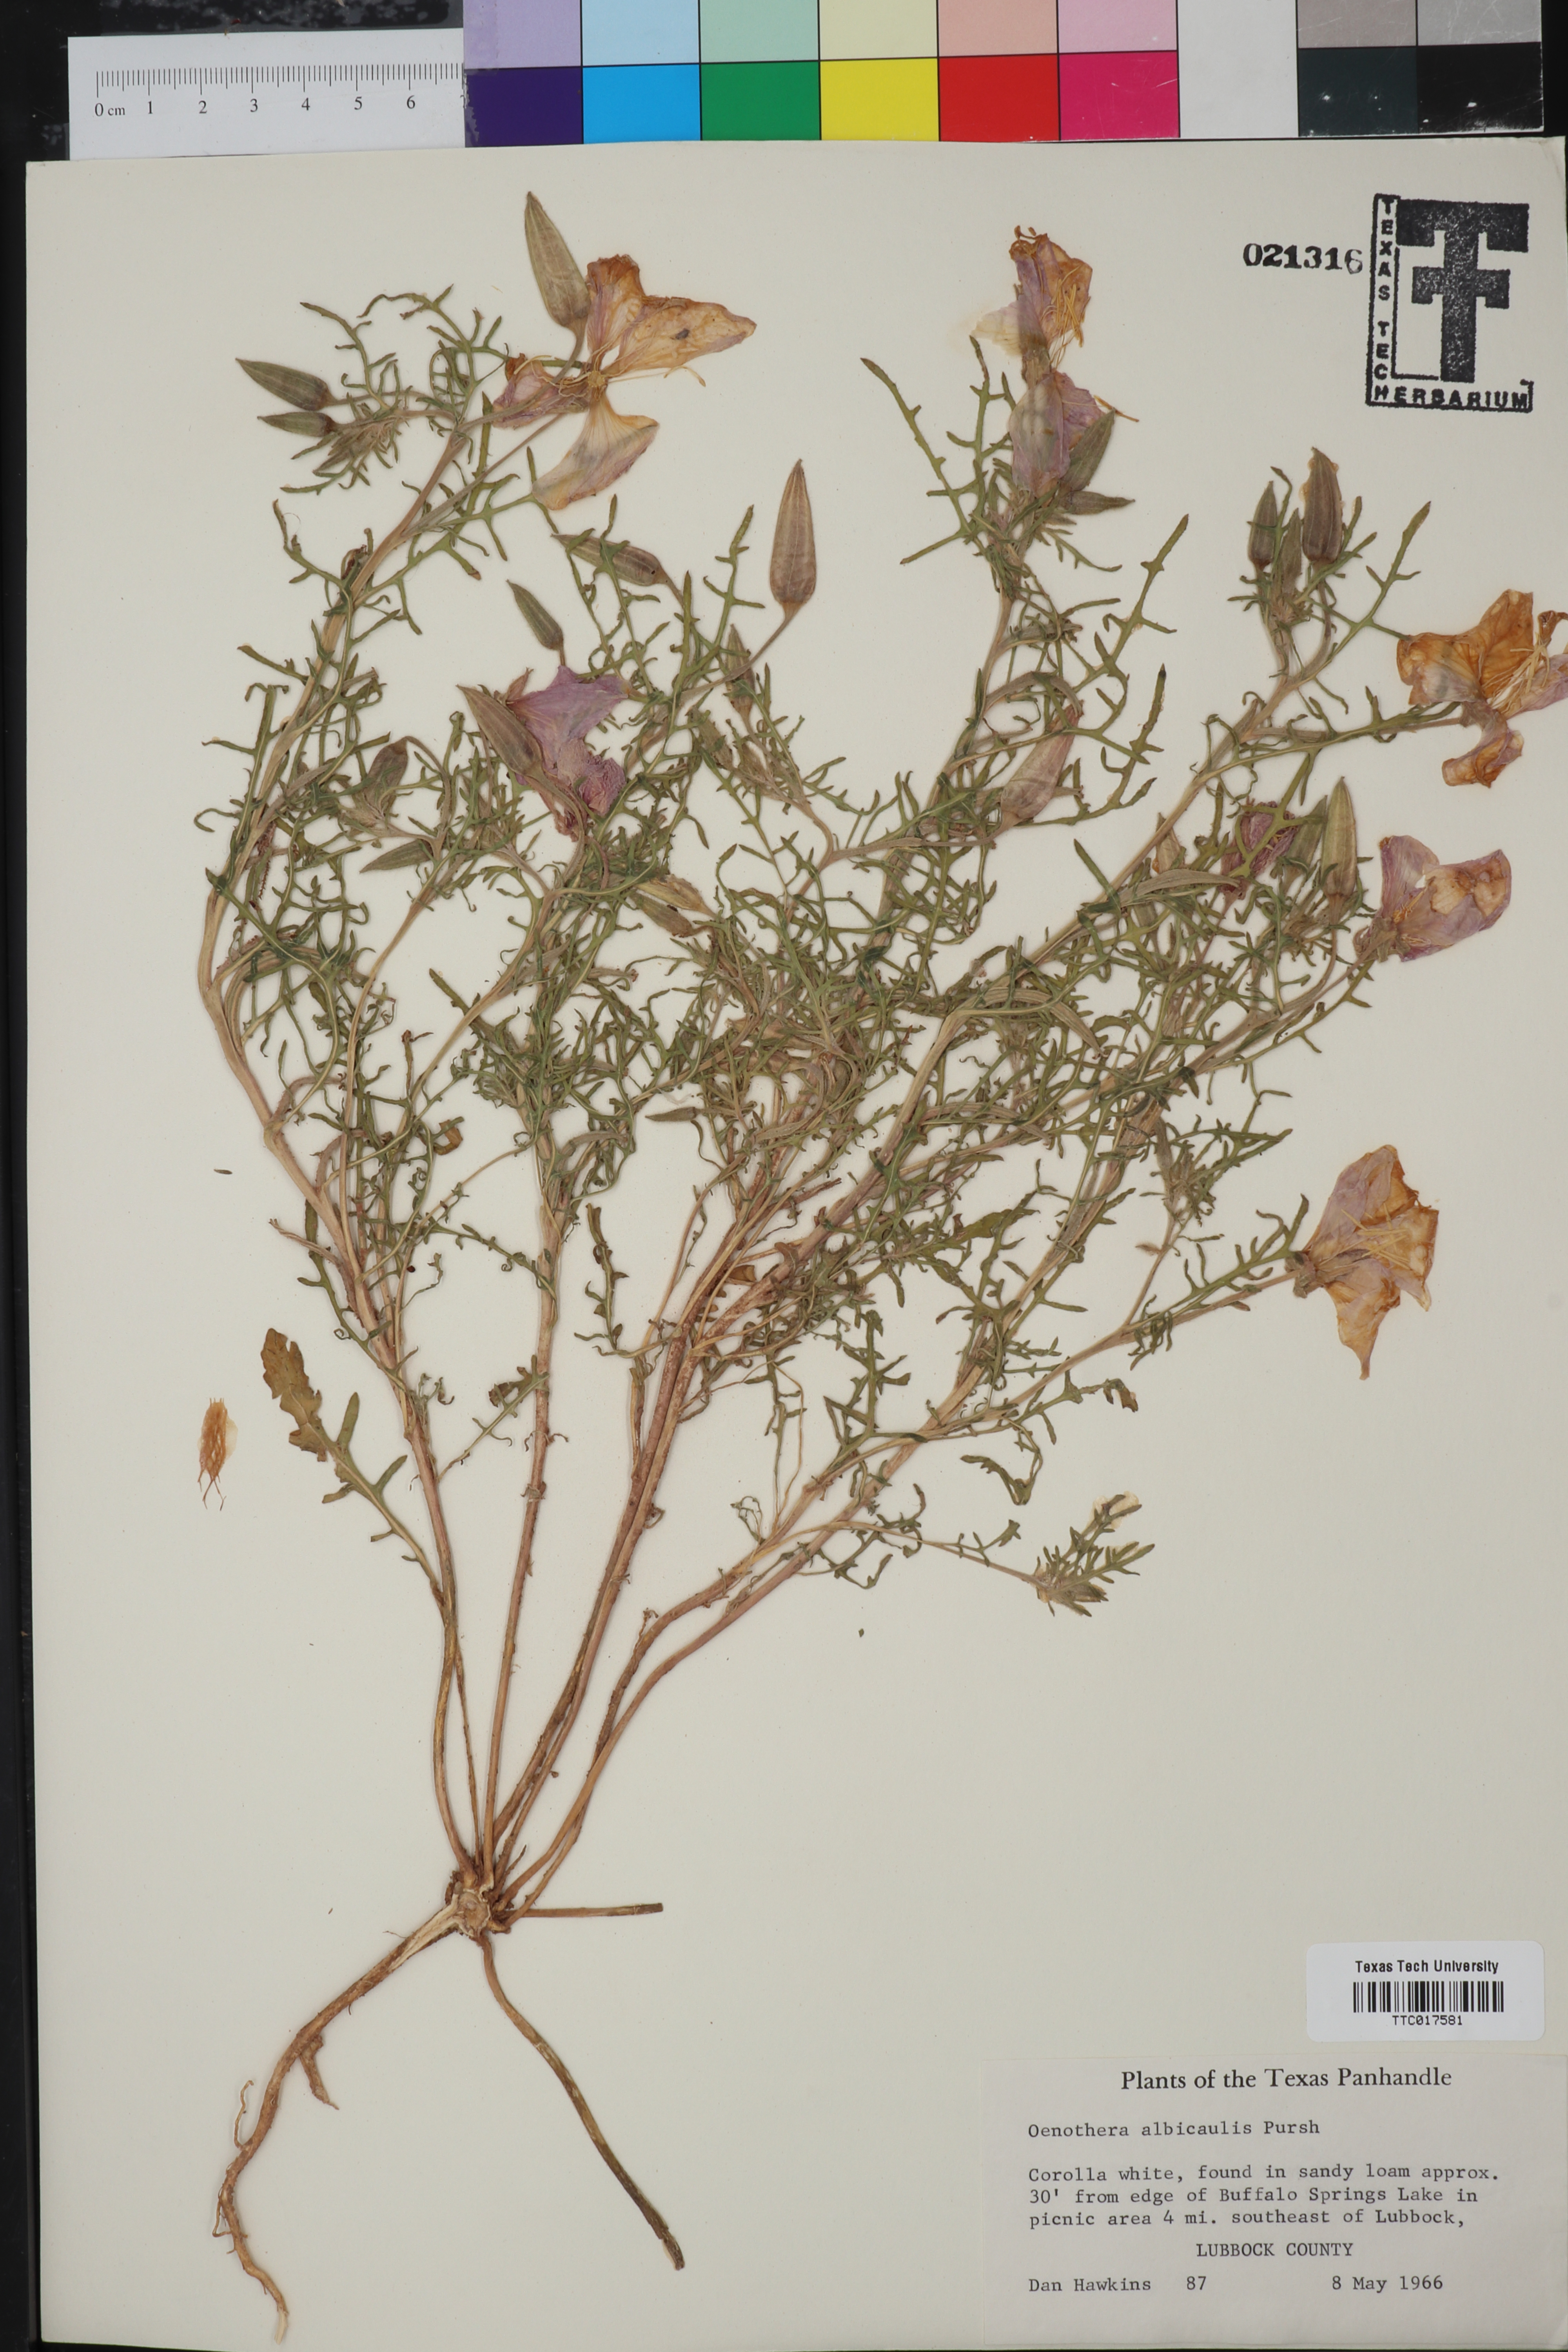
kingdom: Plantae
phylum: Tracheophyta
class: Magnoliopsida
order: Myrtales
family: Onagraceae
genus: Oenothera
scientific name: Oenothera albicaulis
